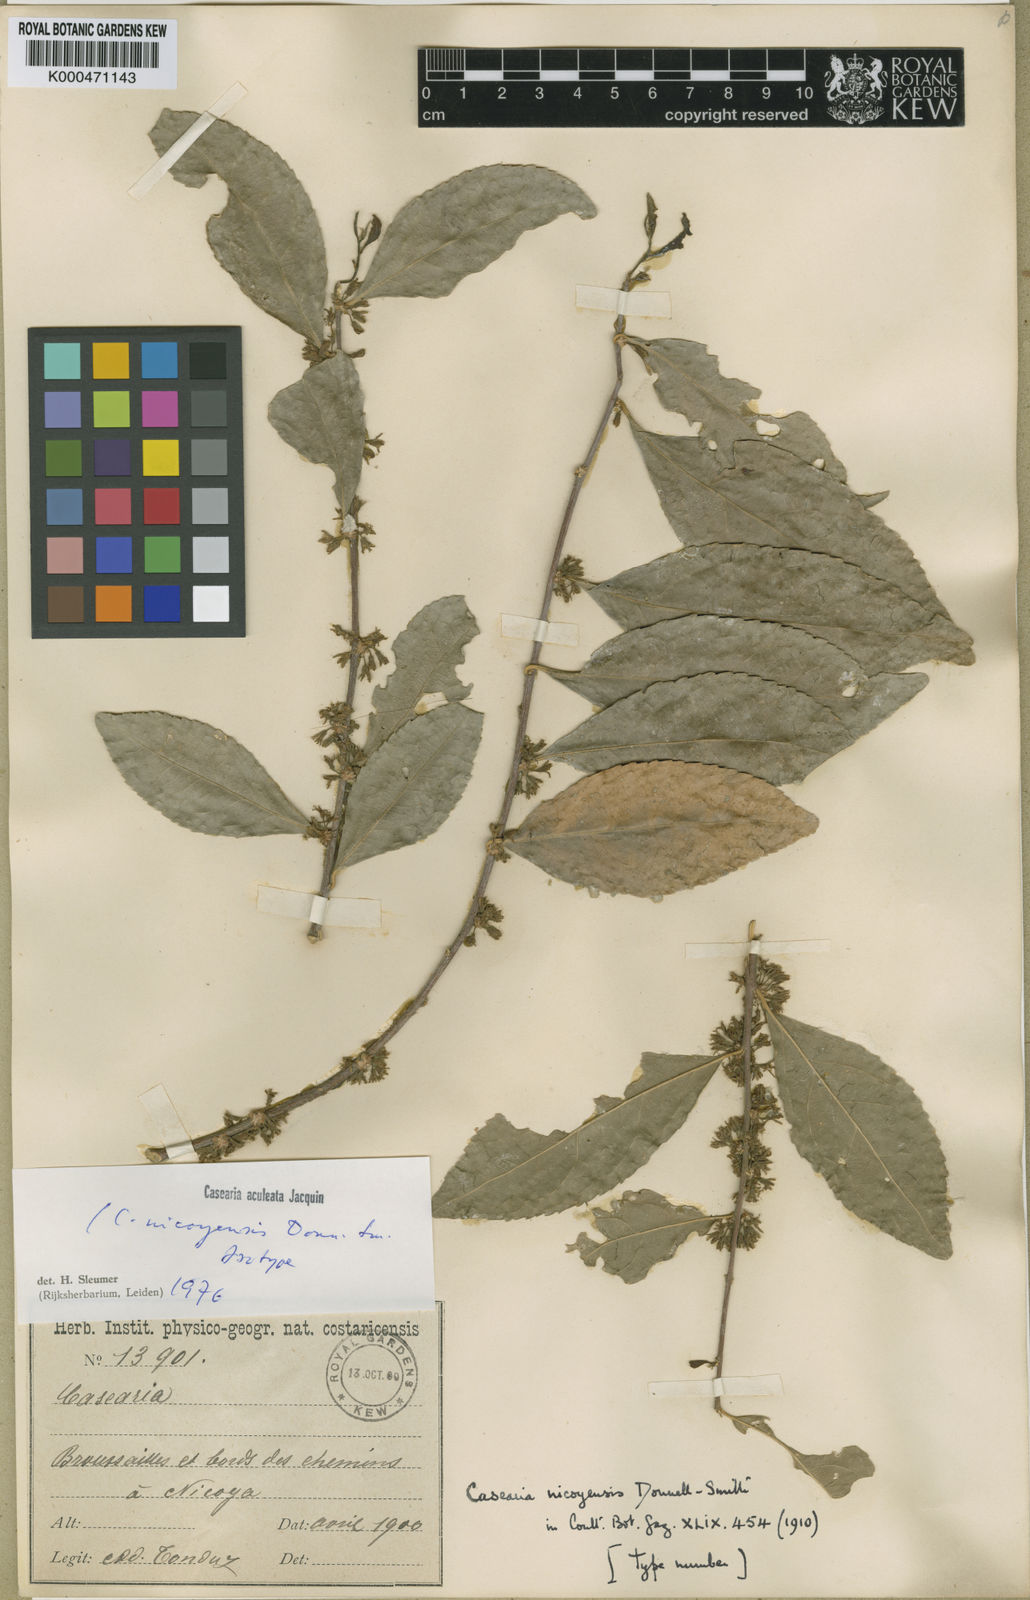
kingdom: Plantae
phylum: Tracheophyta
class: Magnoliopsida
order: Malpighiales
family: Salicaceae
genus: Casearia
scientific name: Casearia aculeata
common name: Cockspur
